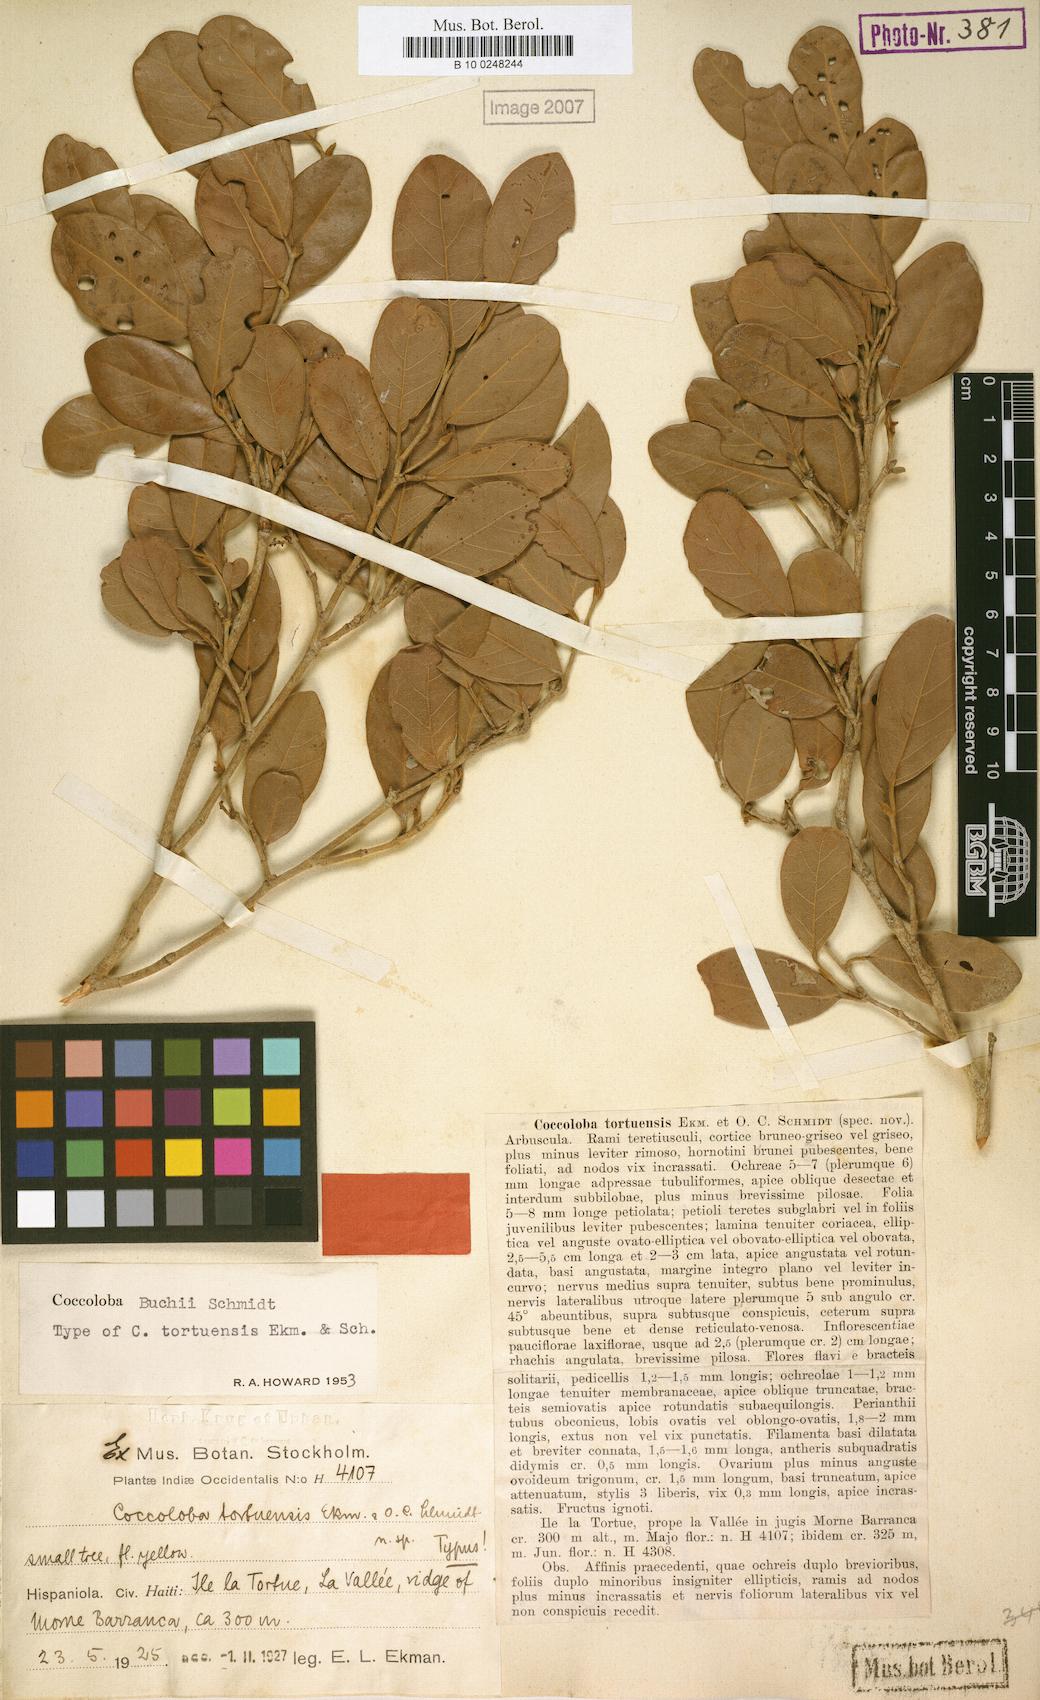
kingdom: Plantae
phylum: Tracheophyta
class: Magnoliopsida
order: Caryophyllales
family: Polygonaceae
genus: Coccoloba
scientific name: Coccoloba buchii
